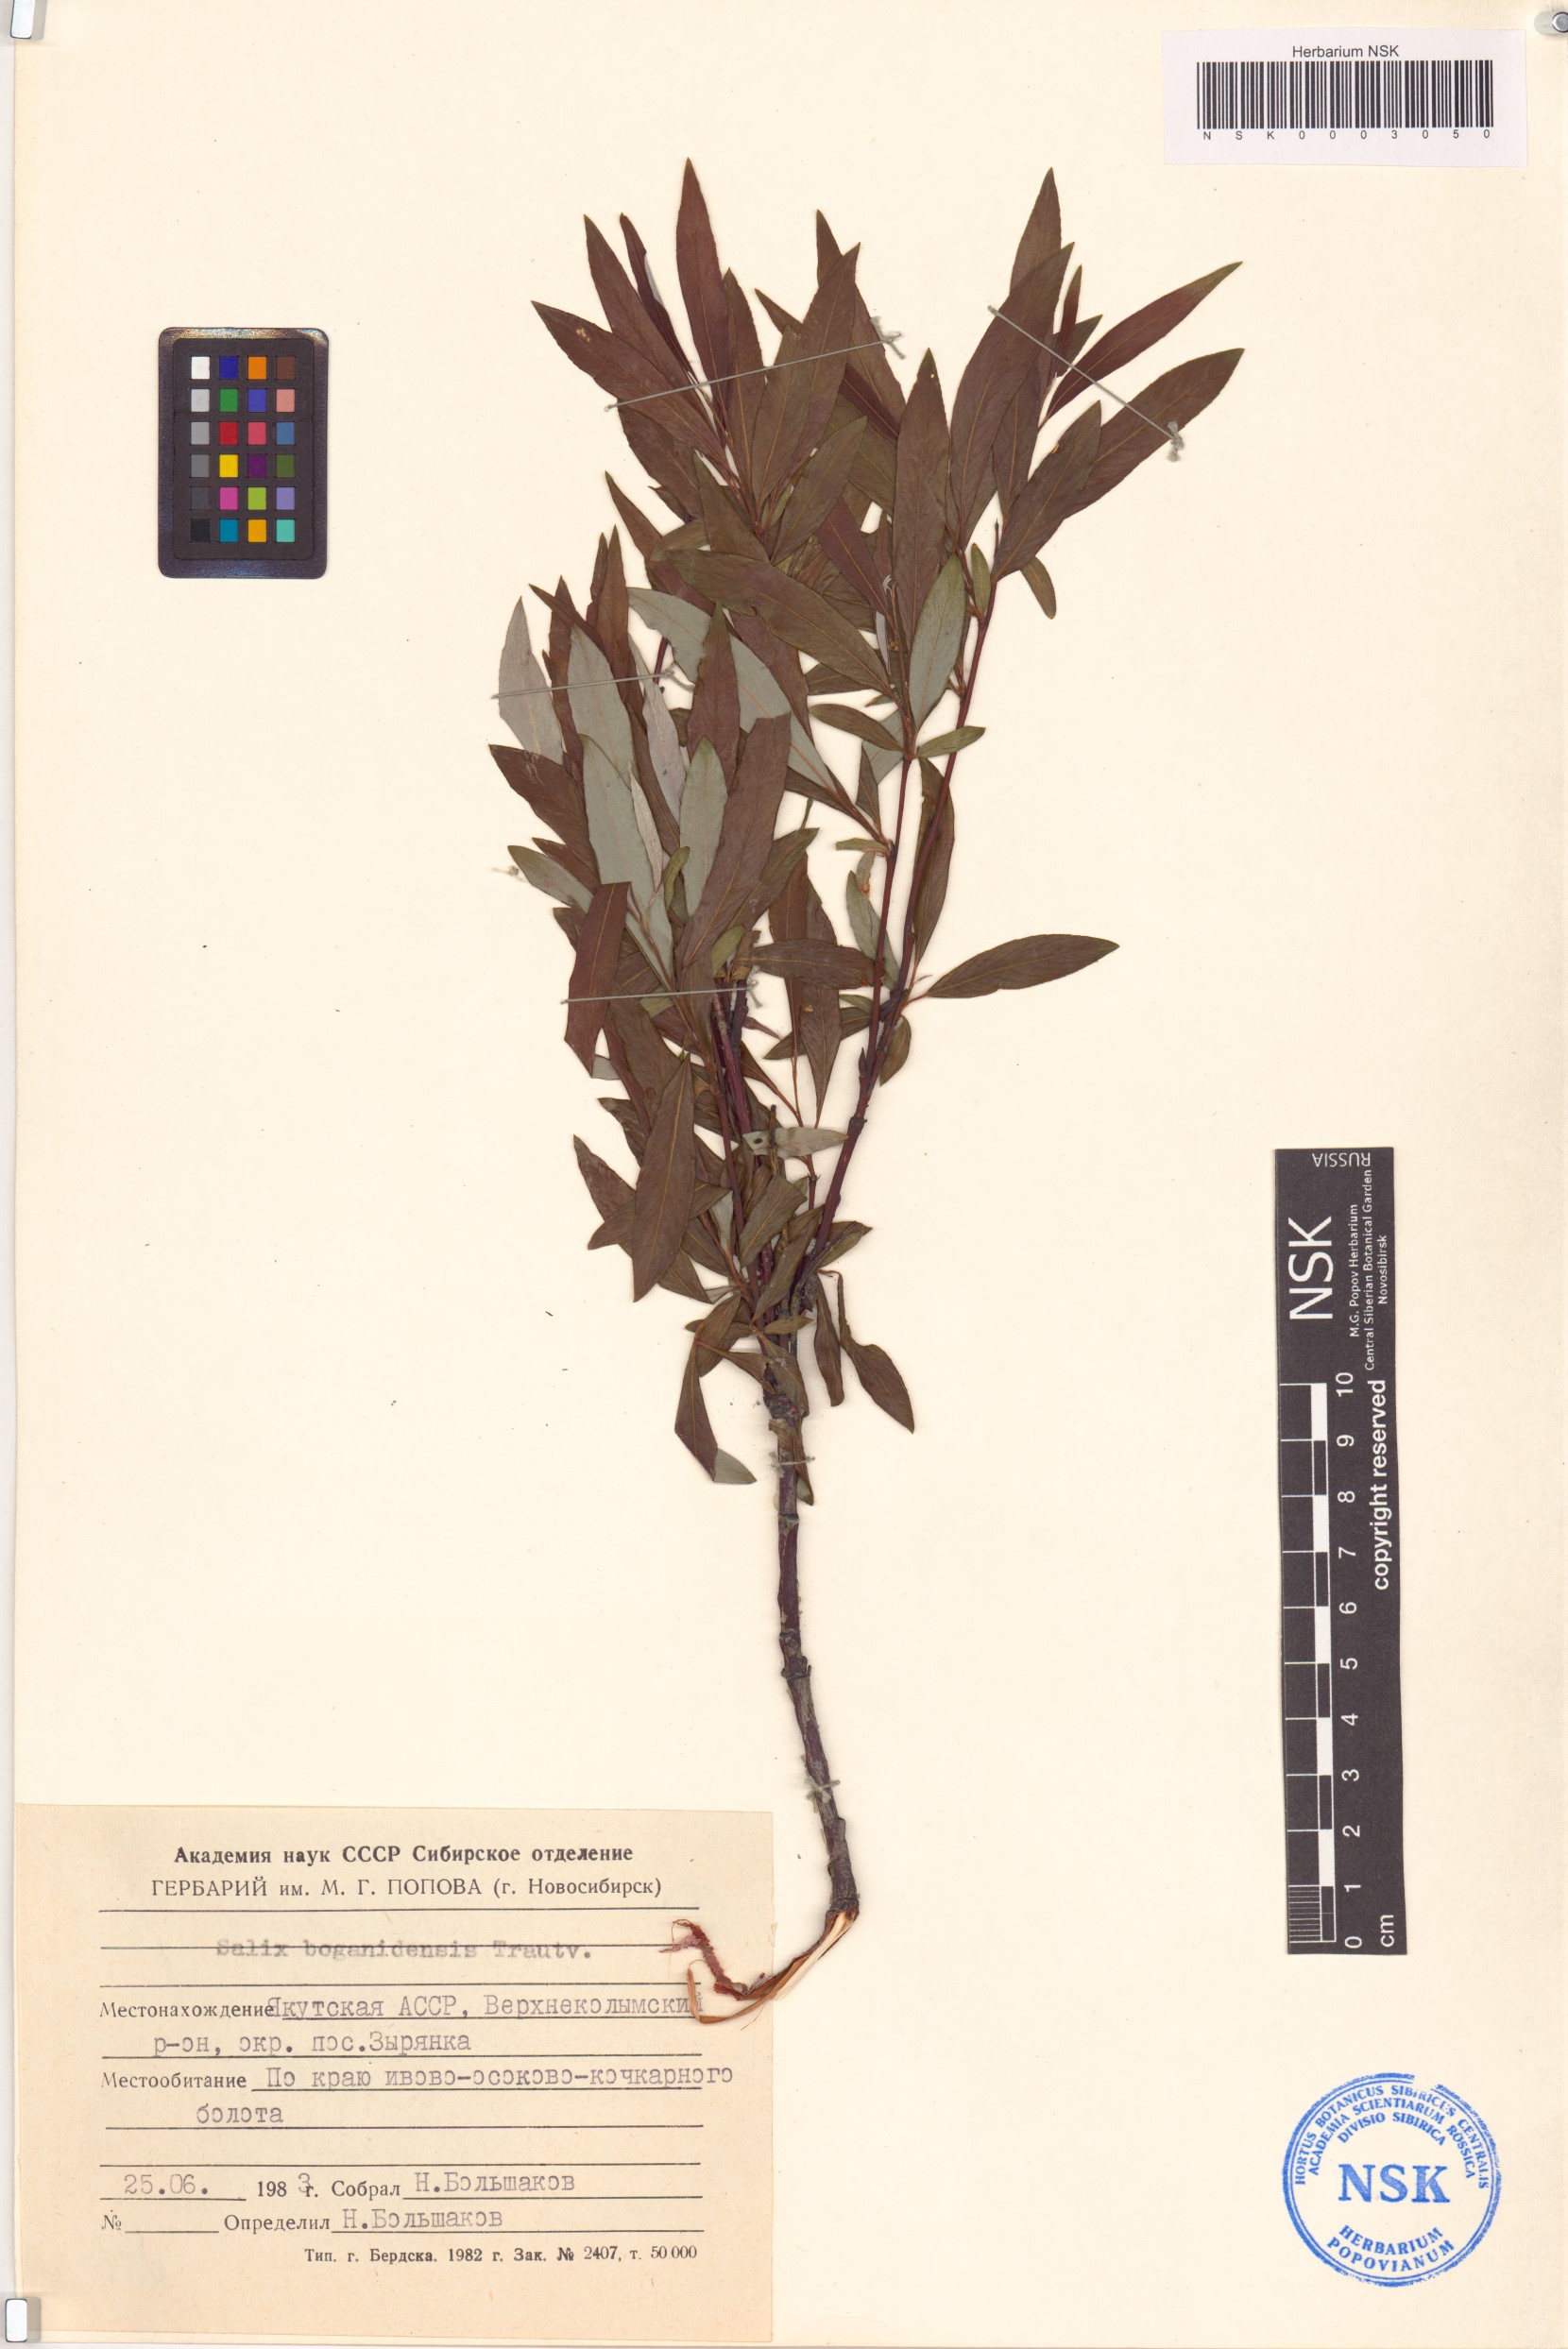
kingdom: Plantae
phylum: Tracheophyta
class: Magnoliopsida
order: Malpighiales
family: Salicaceae
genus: Salix
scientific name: Salix boganidensis
